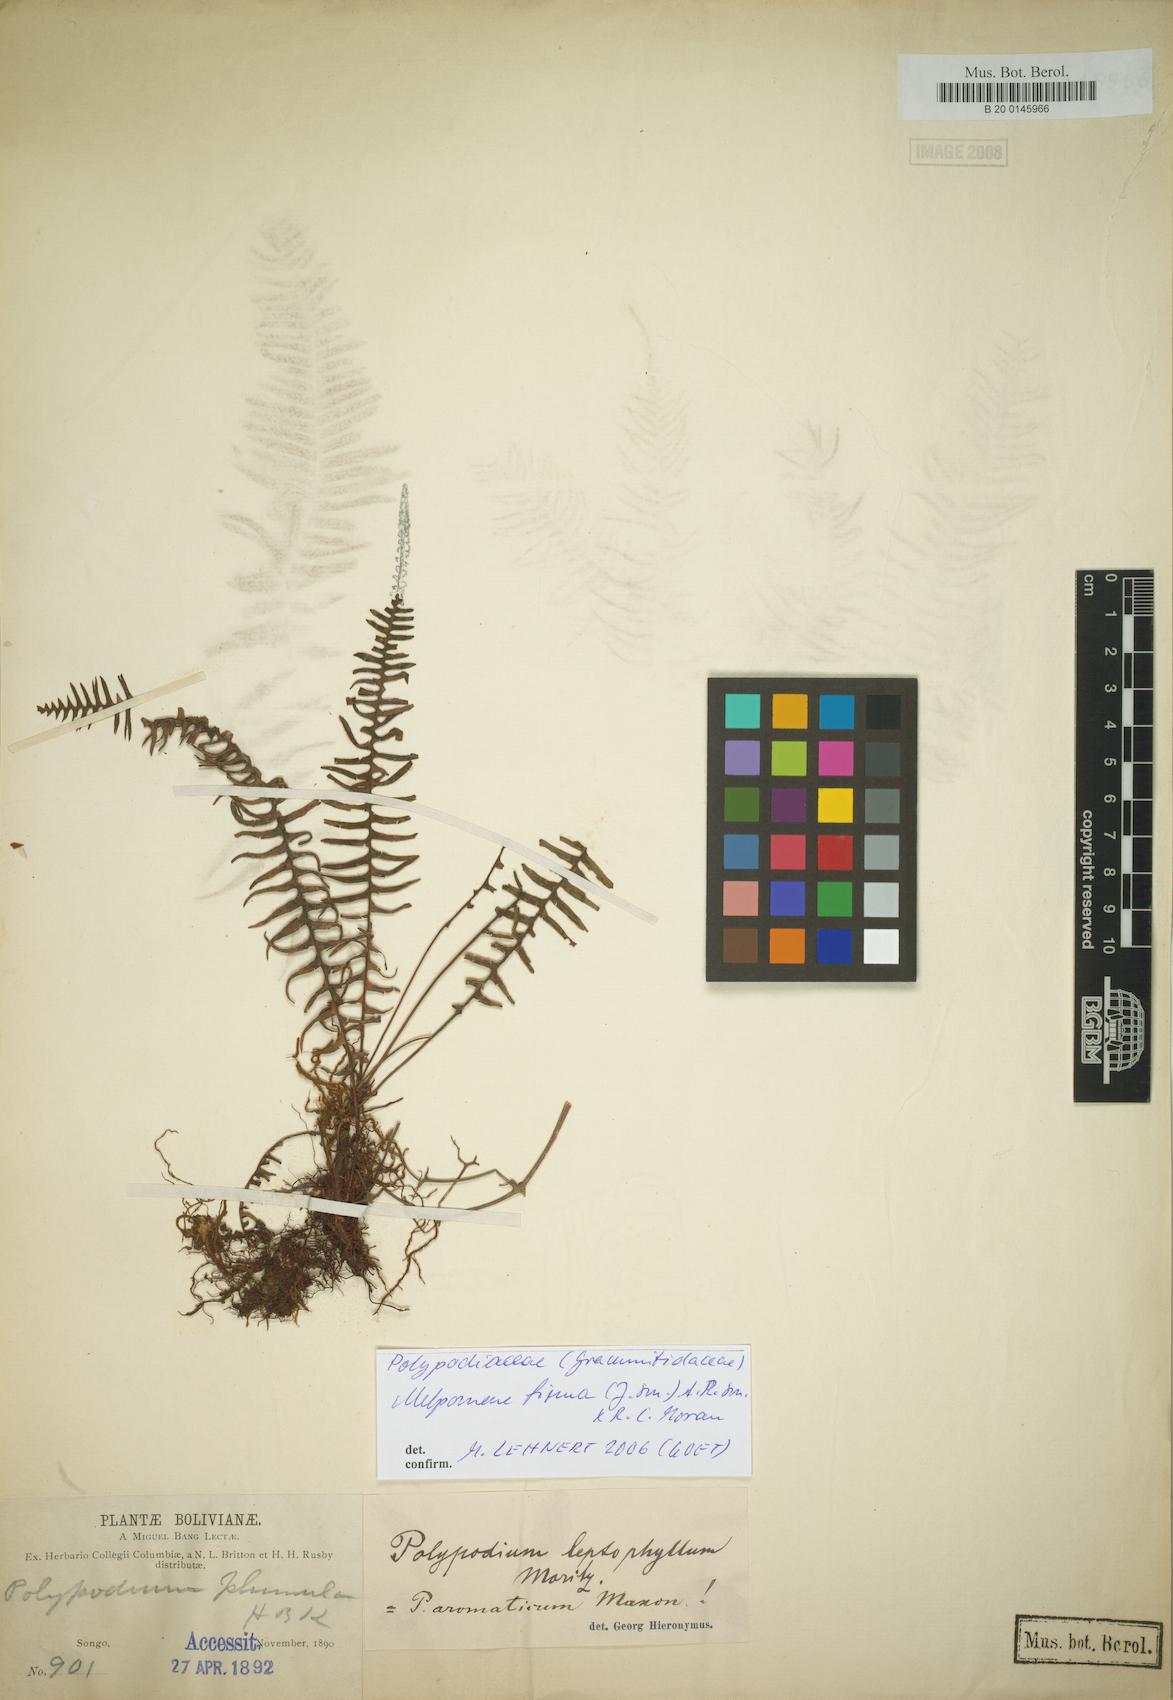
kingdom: Plantae
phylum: Tracheophyta
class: Polypodiopsida
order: Polypodiales
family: Polypodiaceae
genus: Melpomene
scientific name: Melpomene firma
